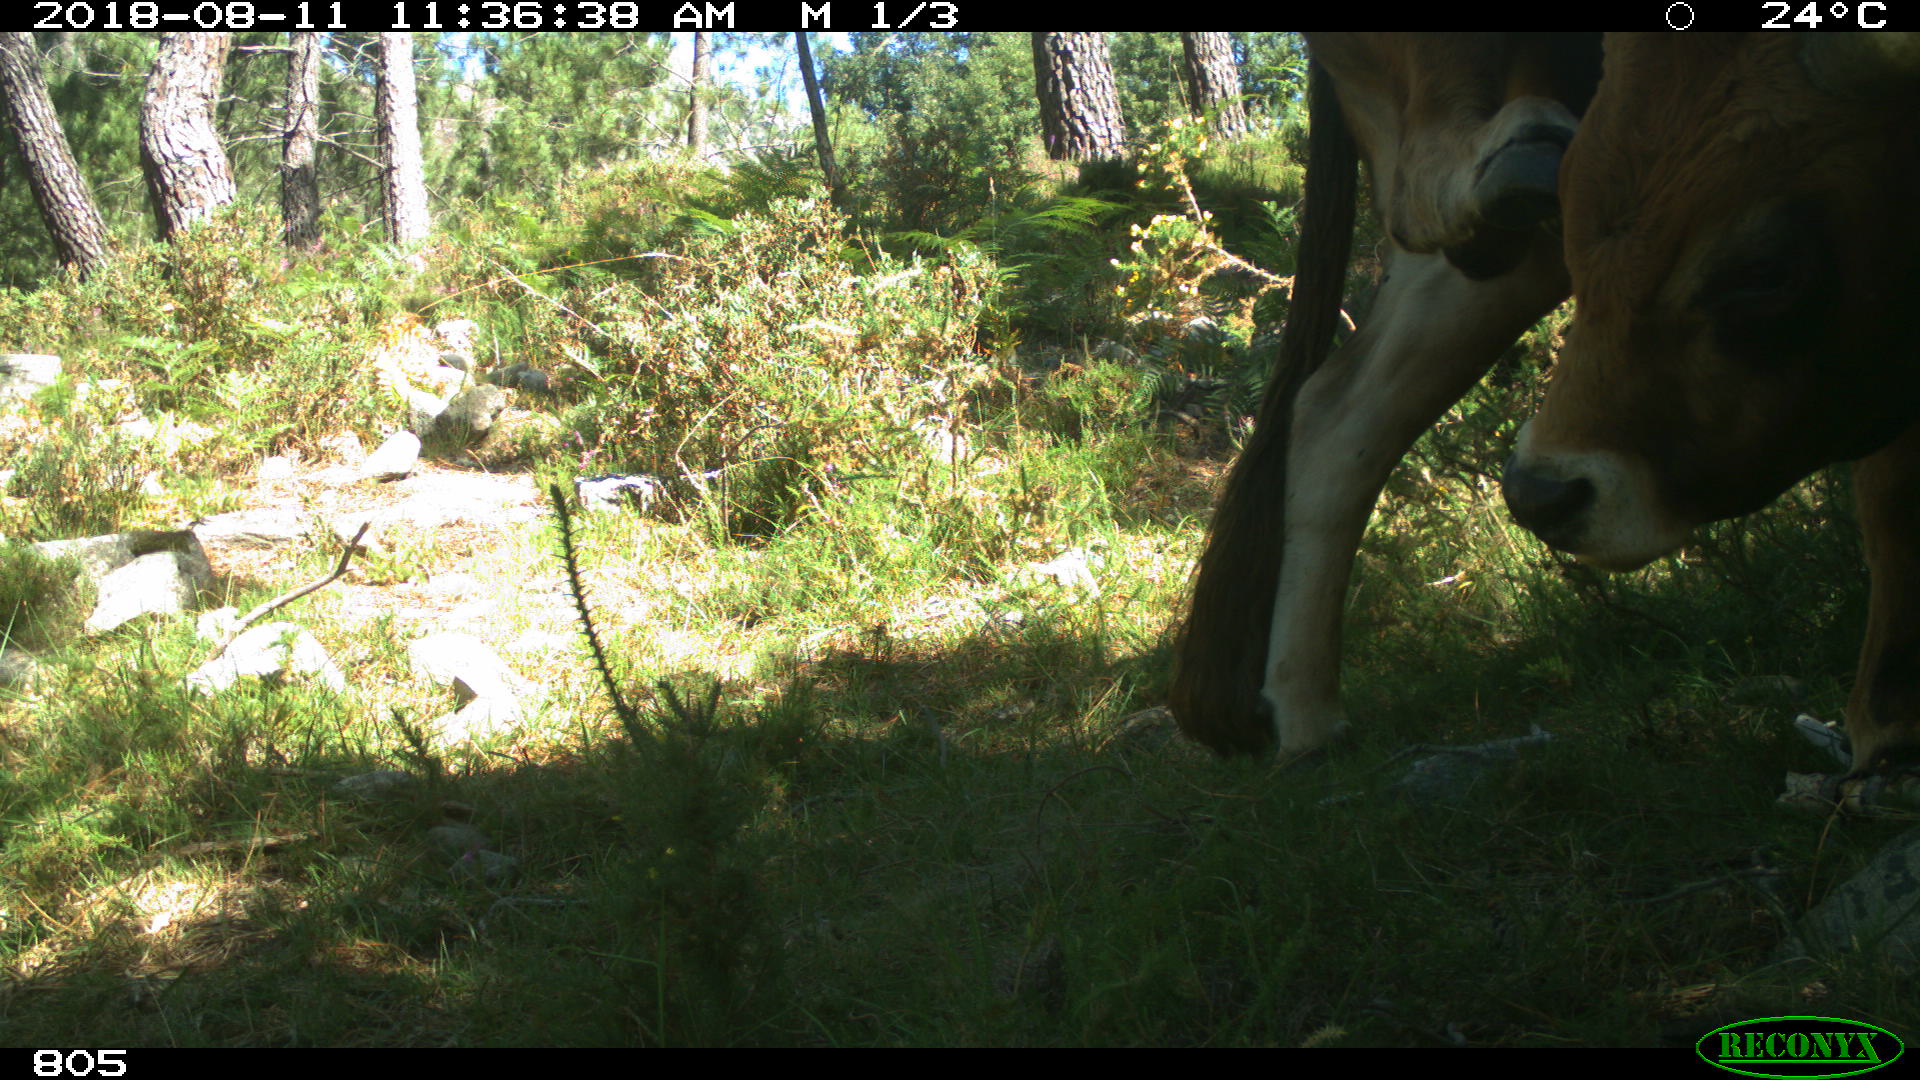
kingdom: Animalia
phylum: Chordata
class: Mammalia
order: Artiodactyla
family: Bovidae
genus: Bos
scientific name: Bos taurus
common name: Domesticated cattle
